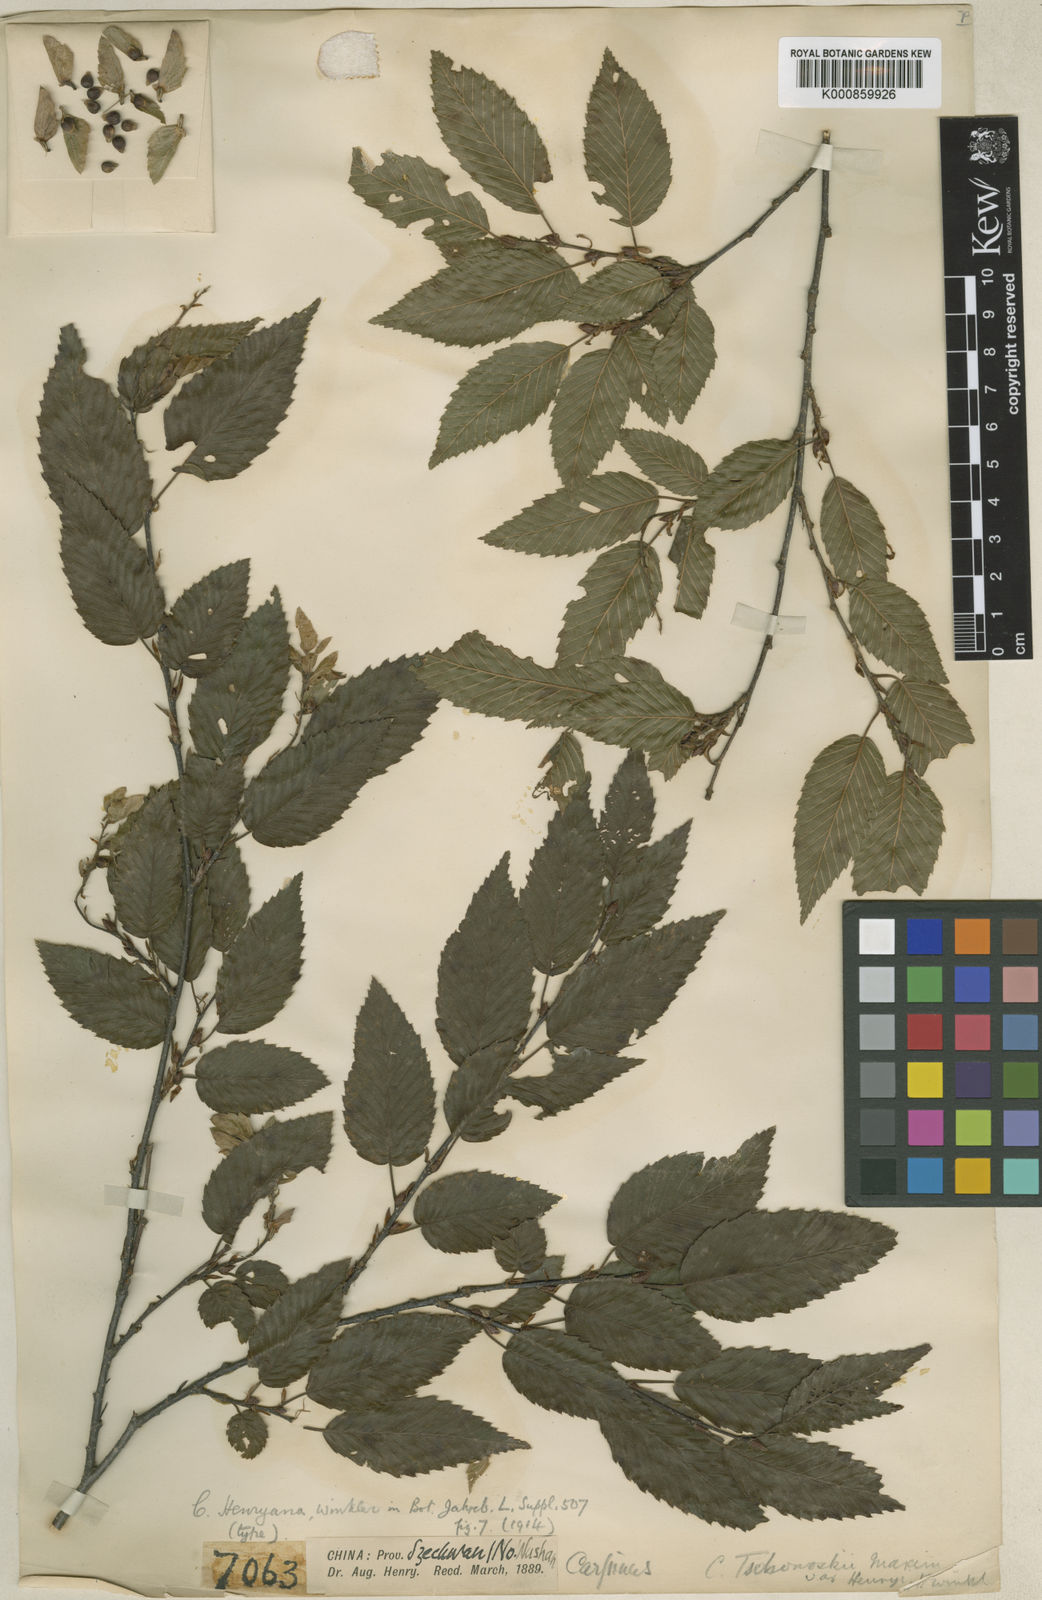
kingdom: Plantae
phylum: Tracheophyta
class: Magnoliopsida
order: Fagales
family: Betulaceae
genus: Carpinus
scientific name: Carpinus henryana
